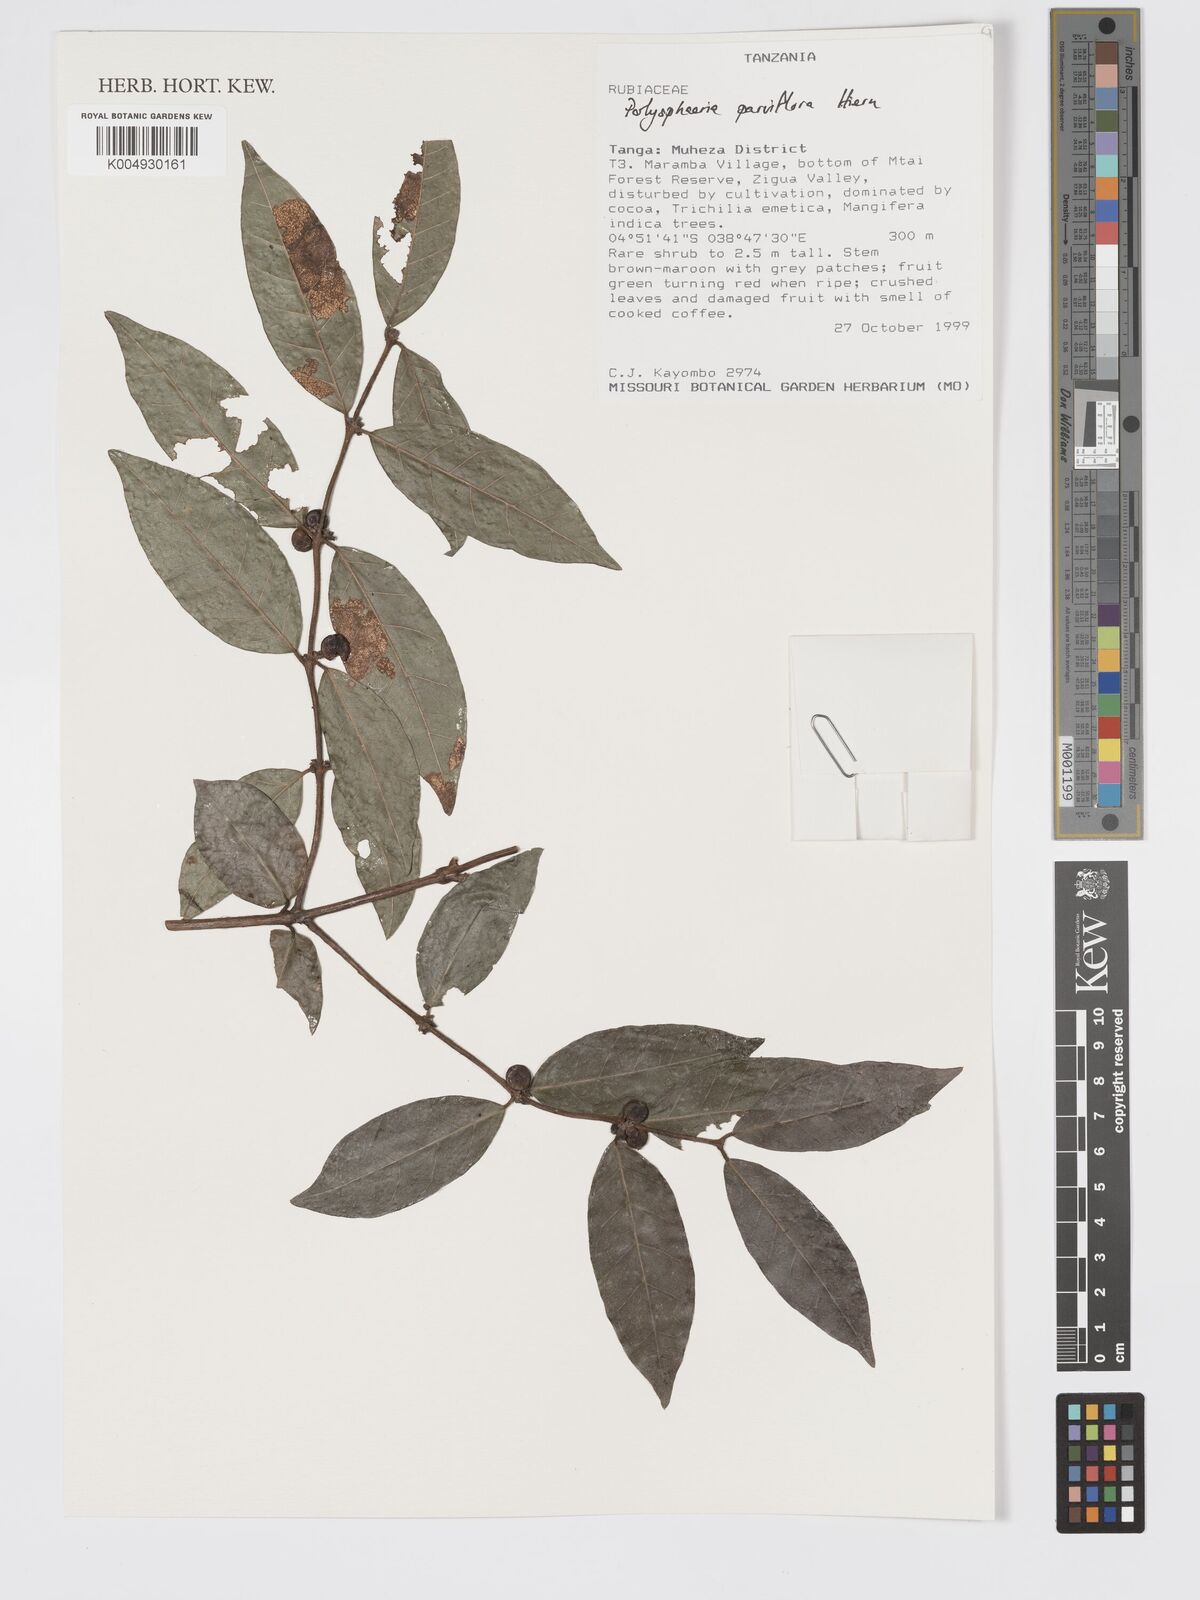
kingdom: Plantae
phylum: Tracheophyta
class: Magnoliopsida
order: Gentianales
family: Rubiaceae
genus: Polysphaeria
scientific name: Polysphaeria parvifolia
